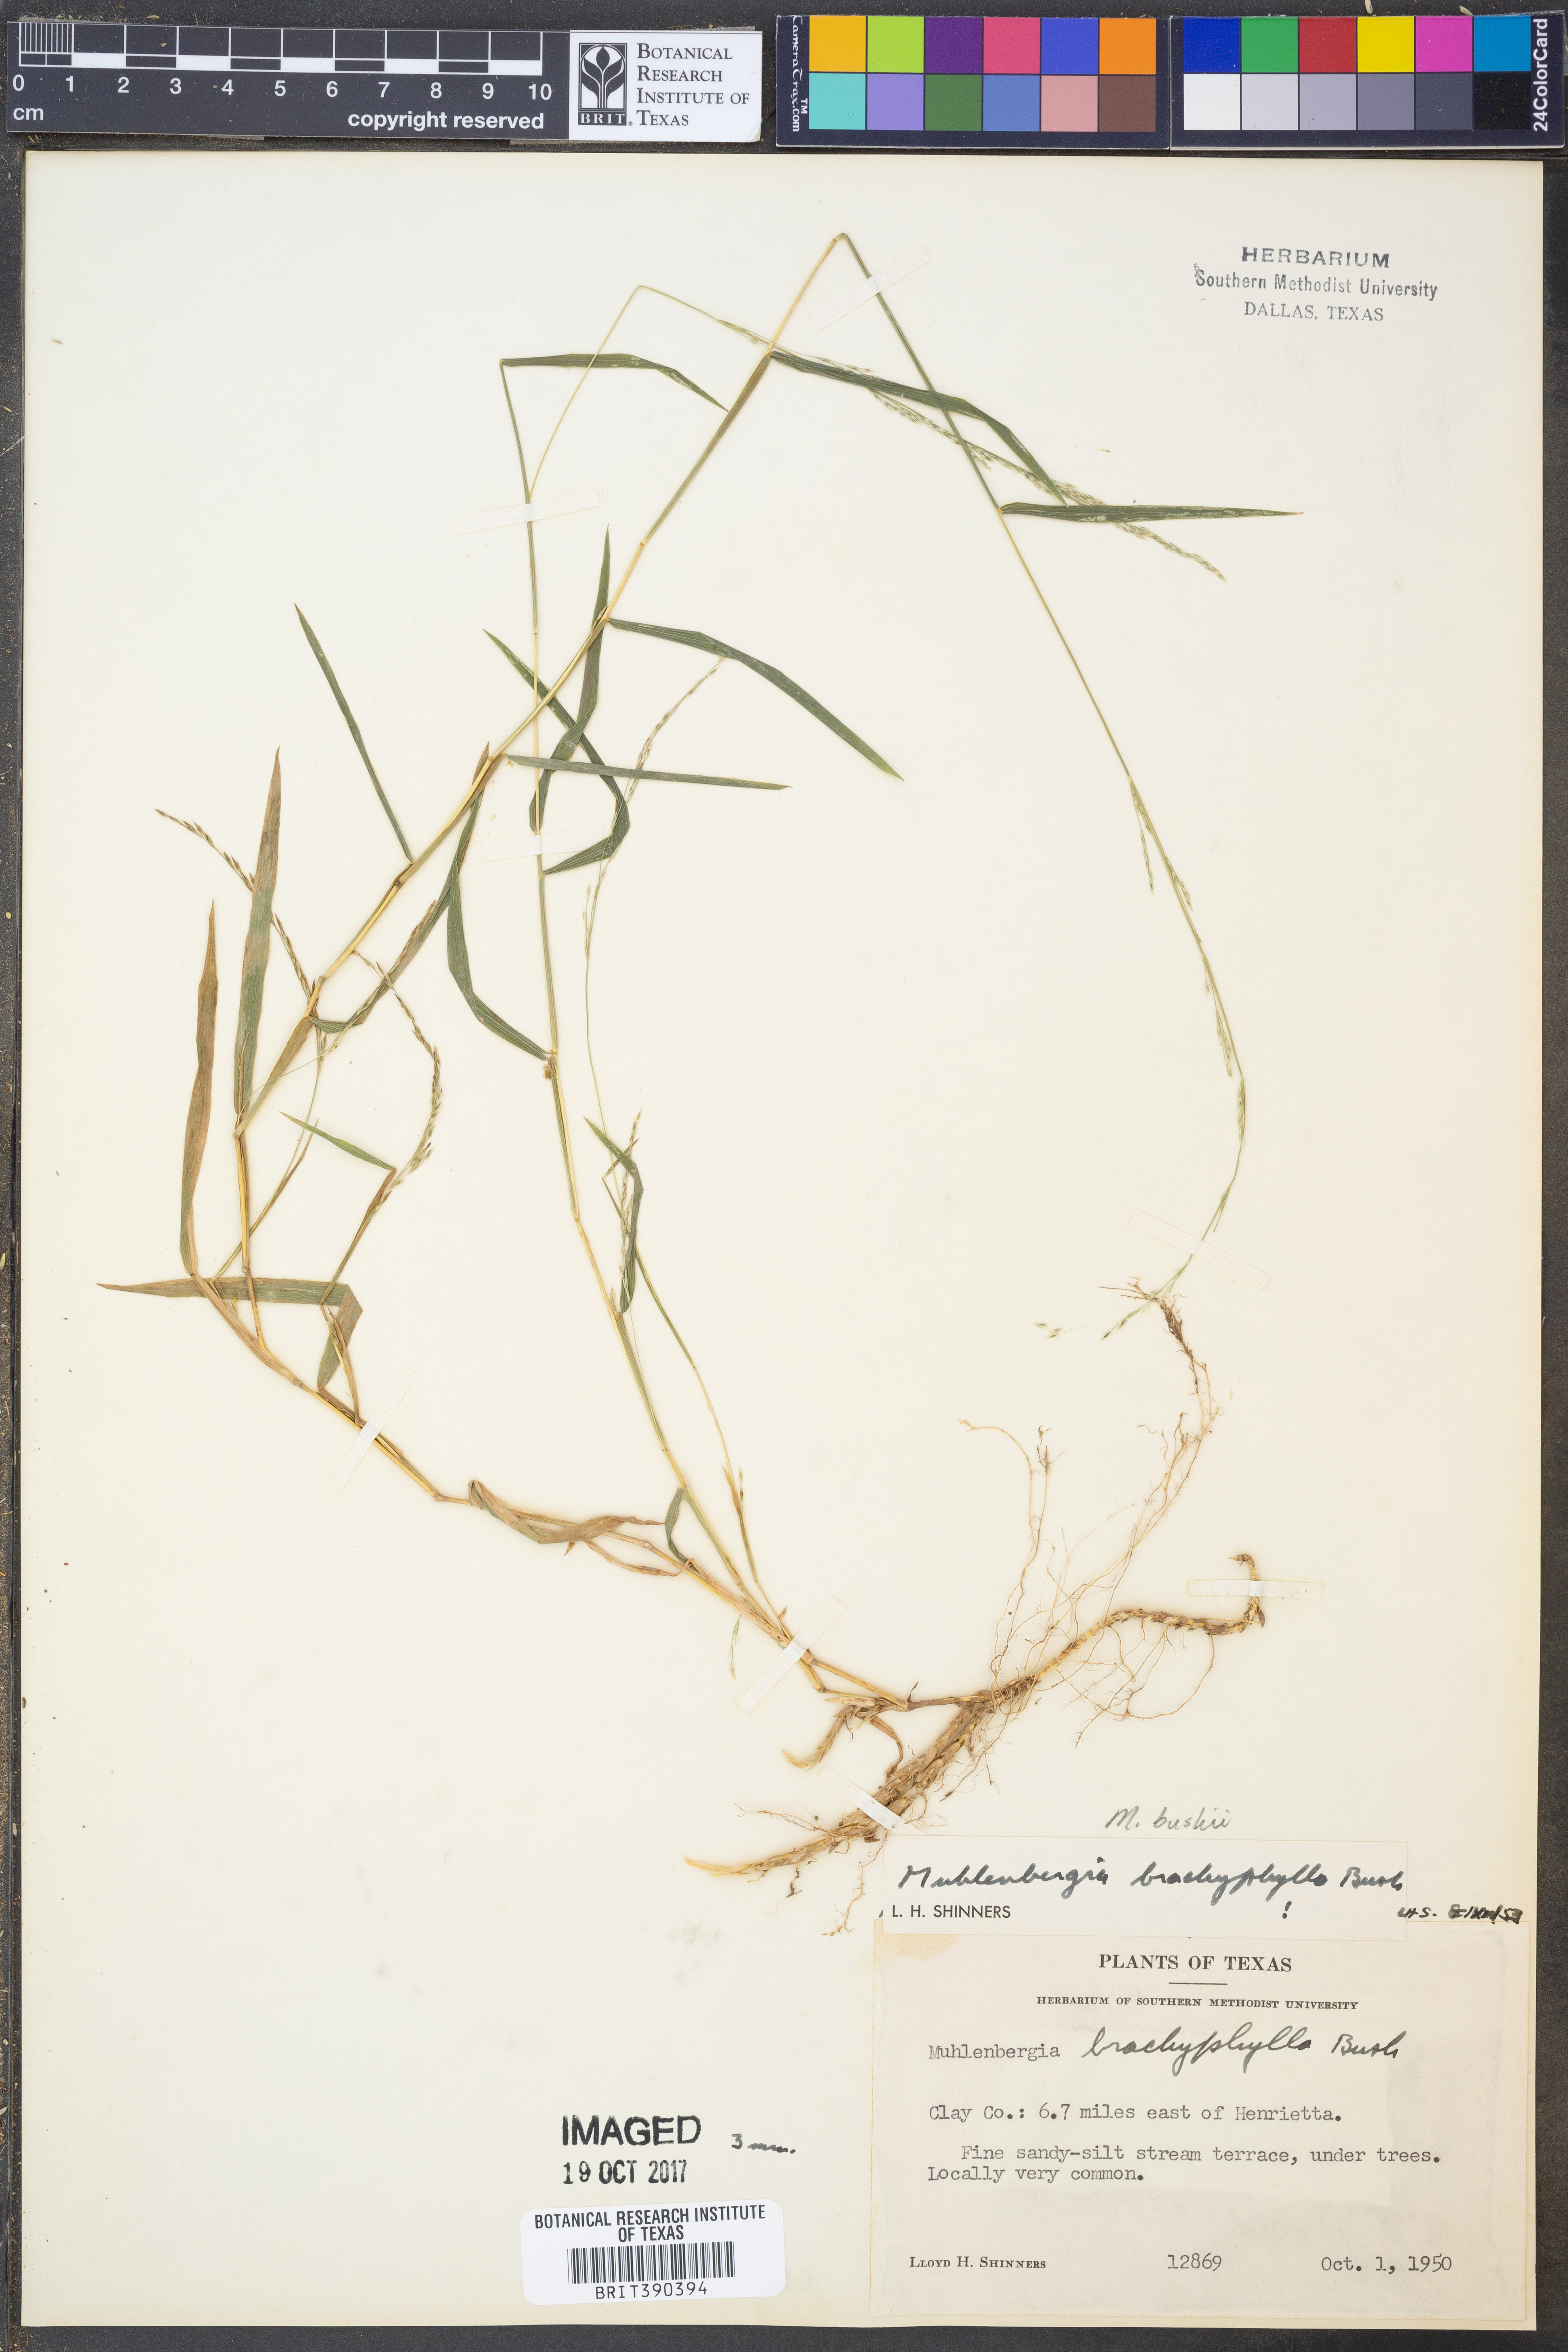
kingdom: Plantae
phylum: Tracheophyta
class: Liliopsida
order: Poales
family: Poaceae
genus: Muhlenbergia
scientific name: Muhlenbergia bushii
